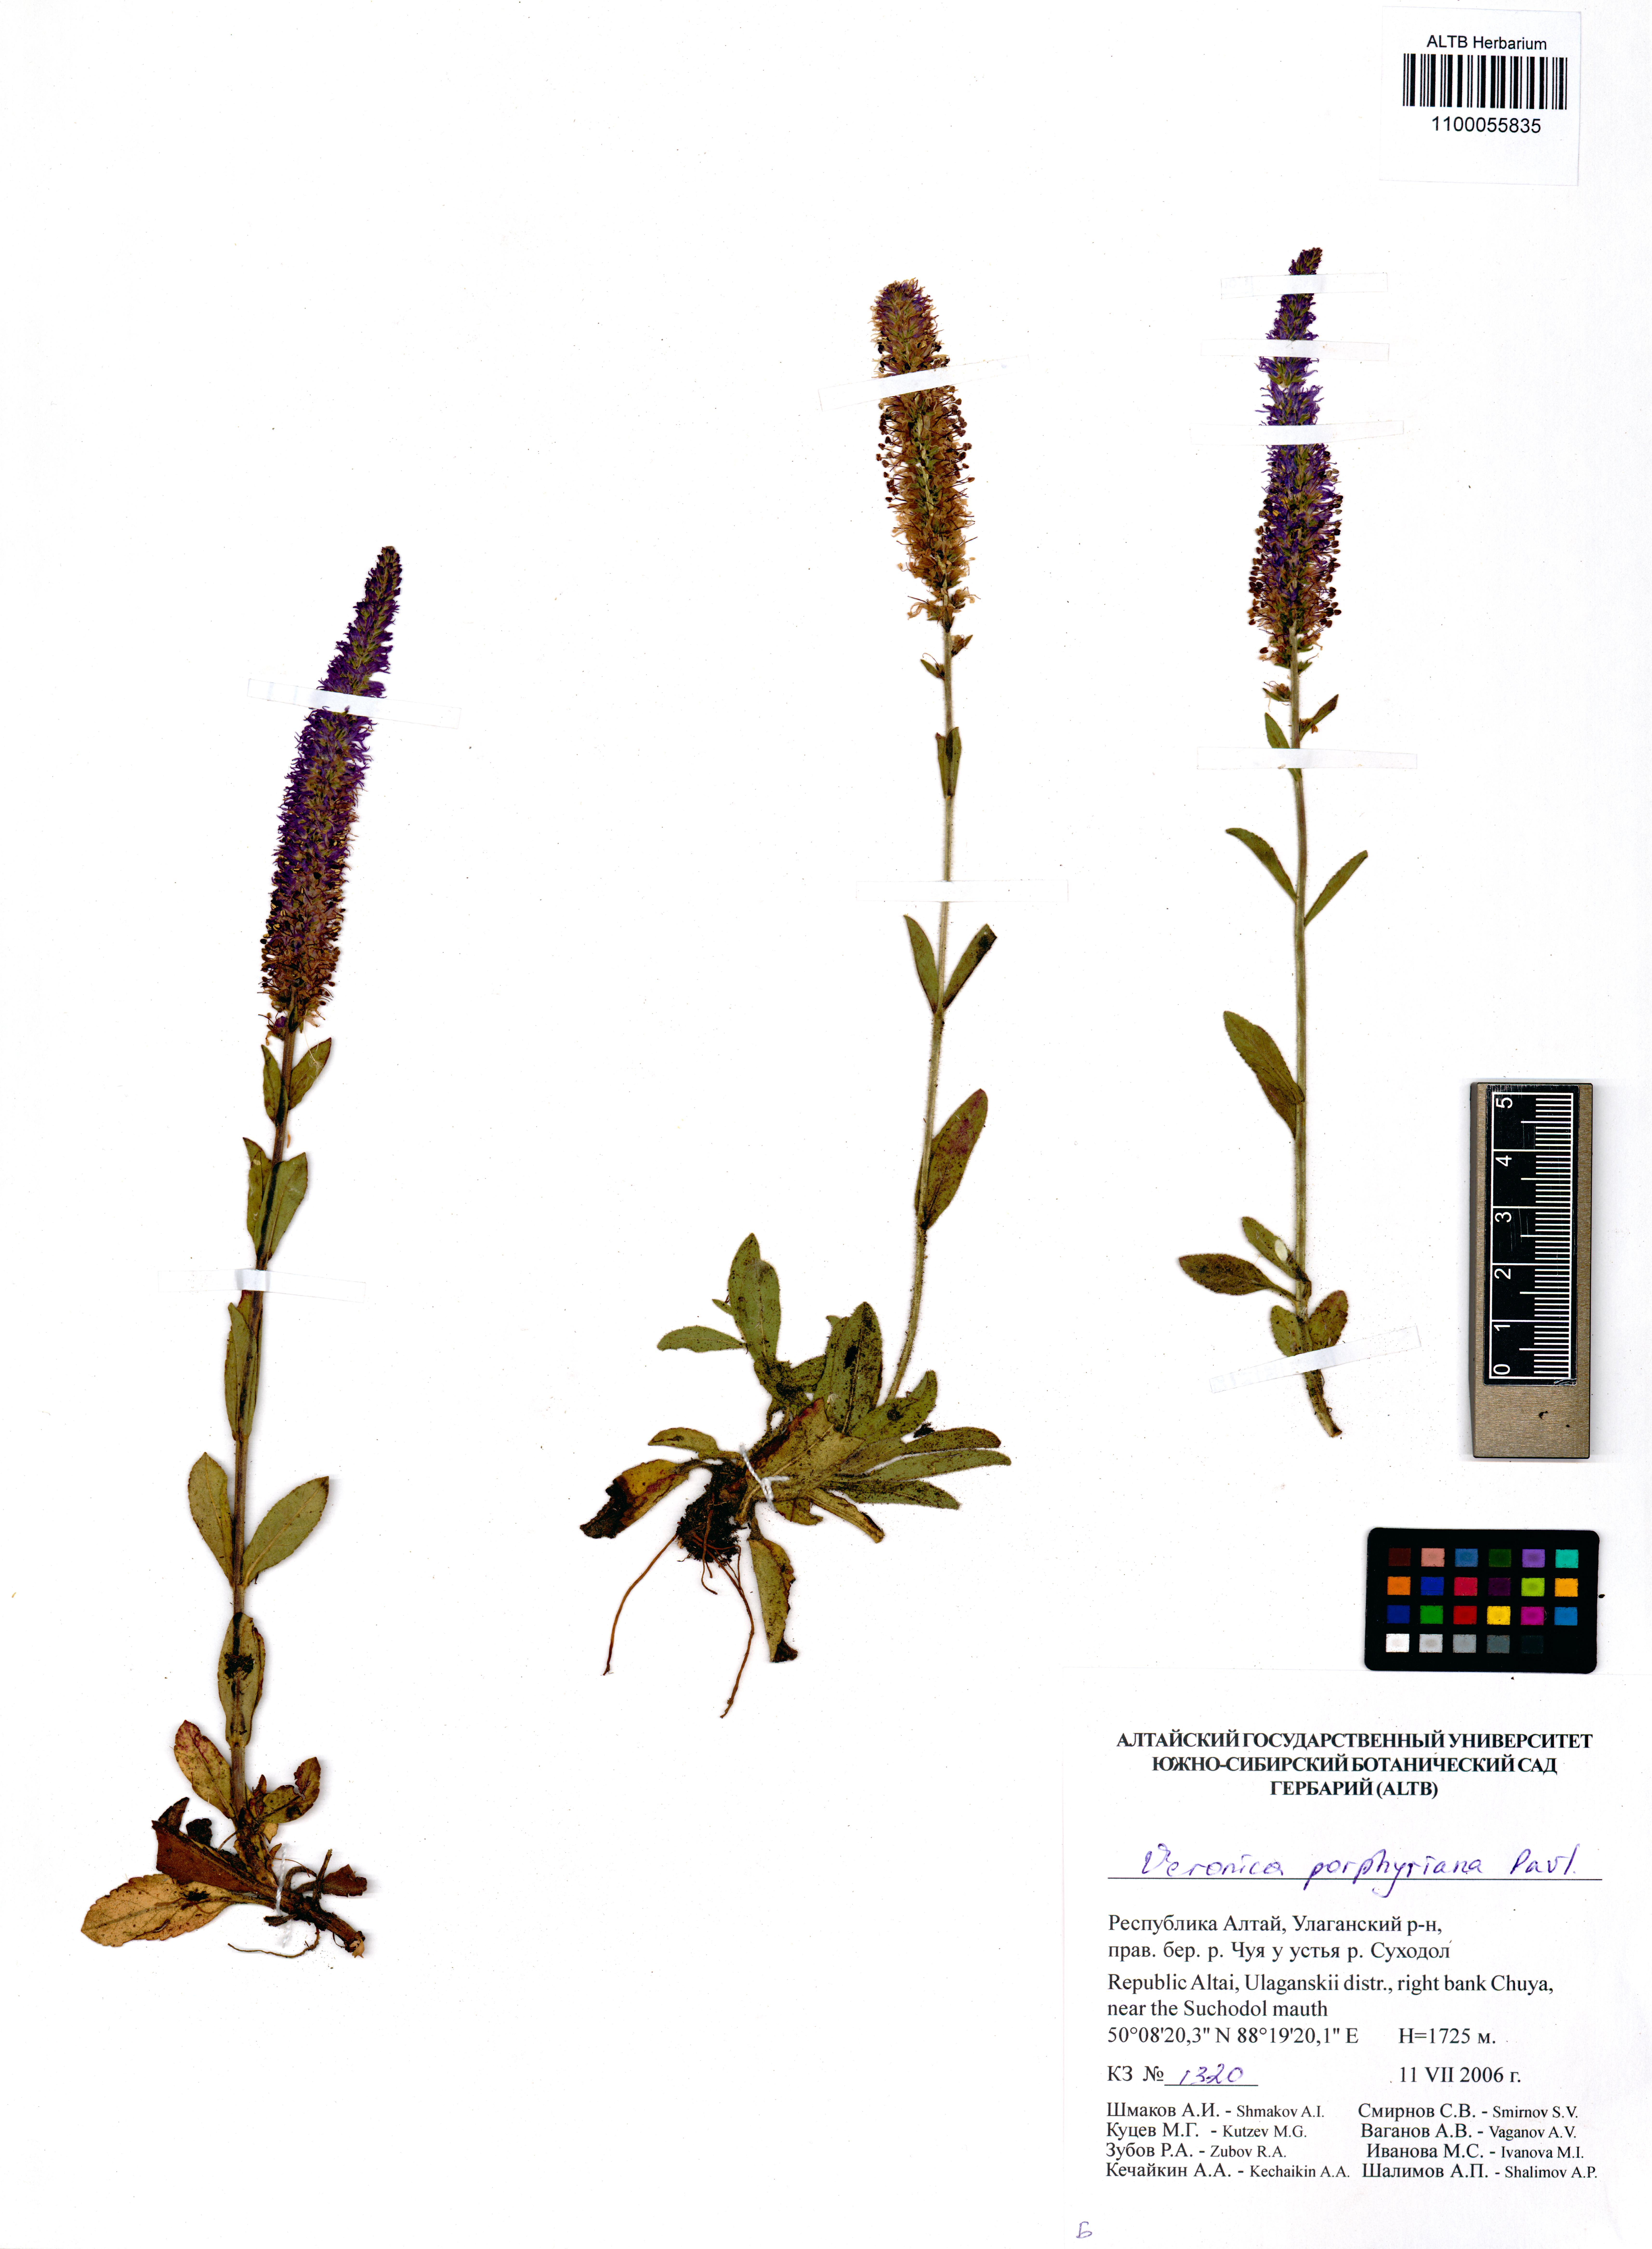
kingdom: Plantae
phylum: Tracheophyta
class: Magnoliopsida
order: Lamiales
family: Plantaginaceae
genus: Veronica
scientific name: Veronica porphyriana
